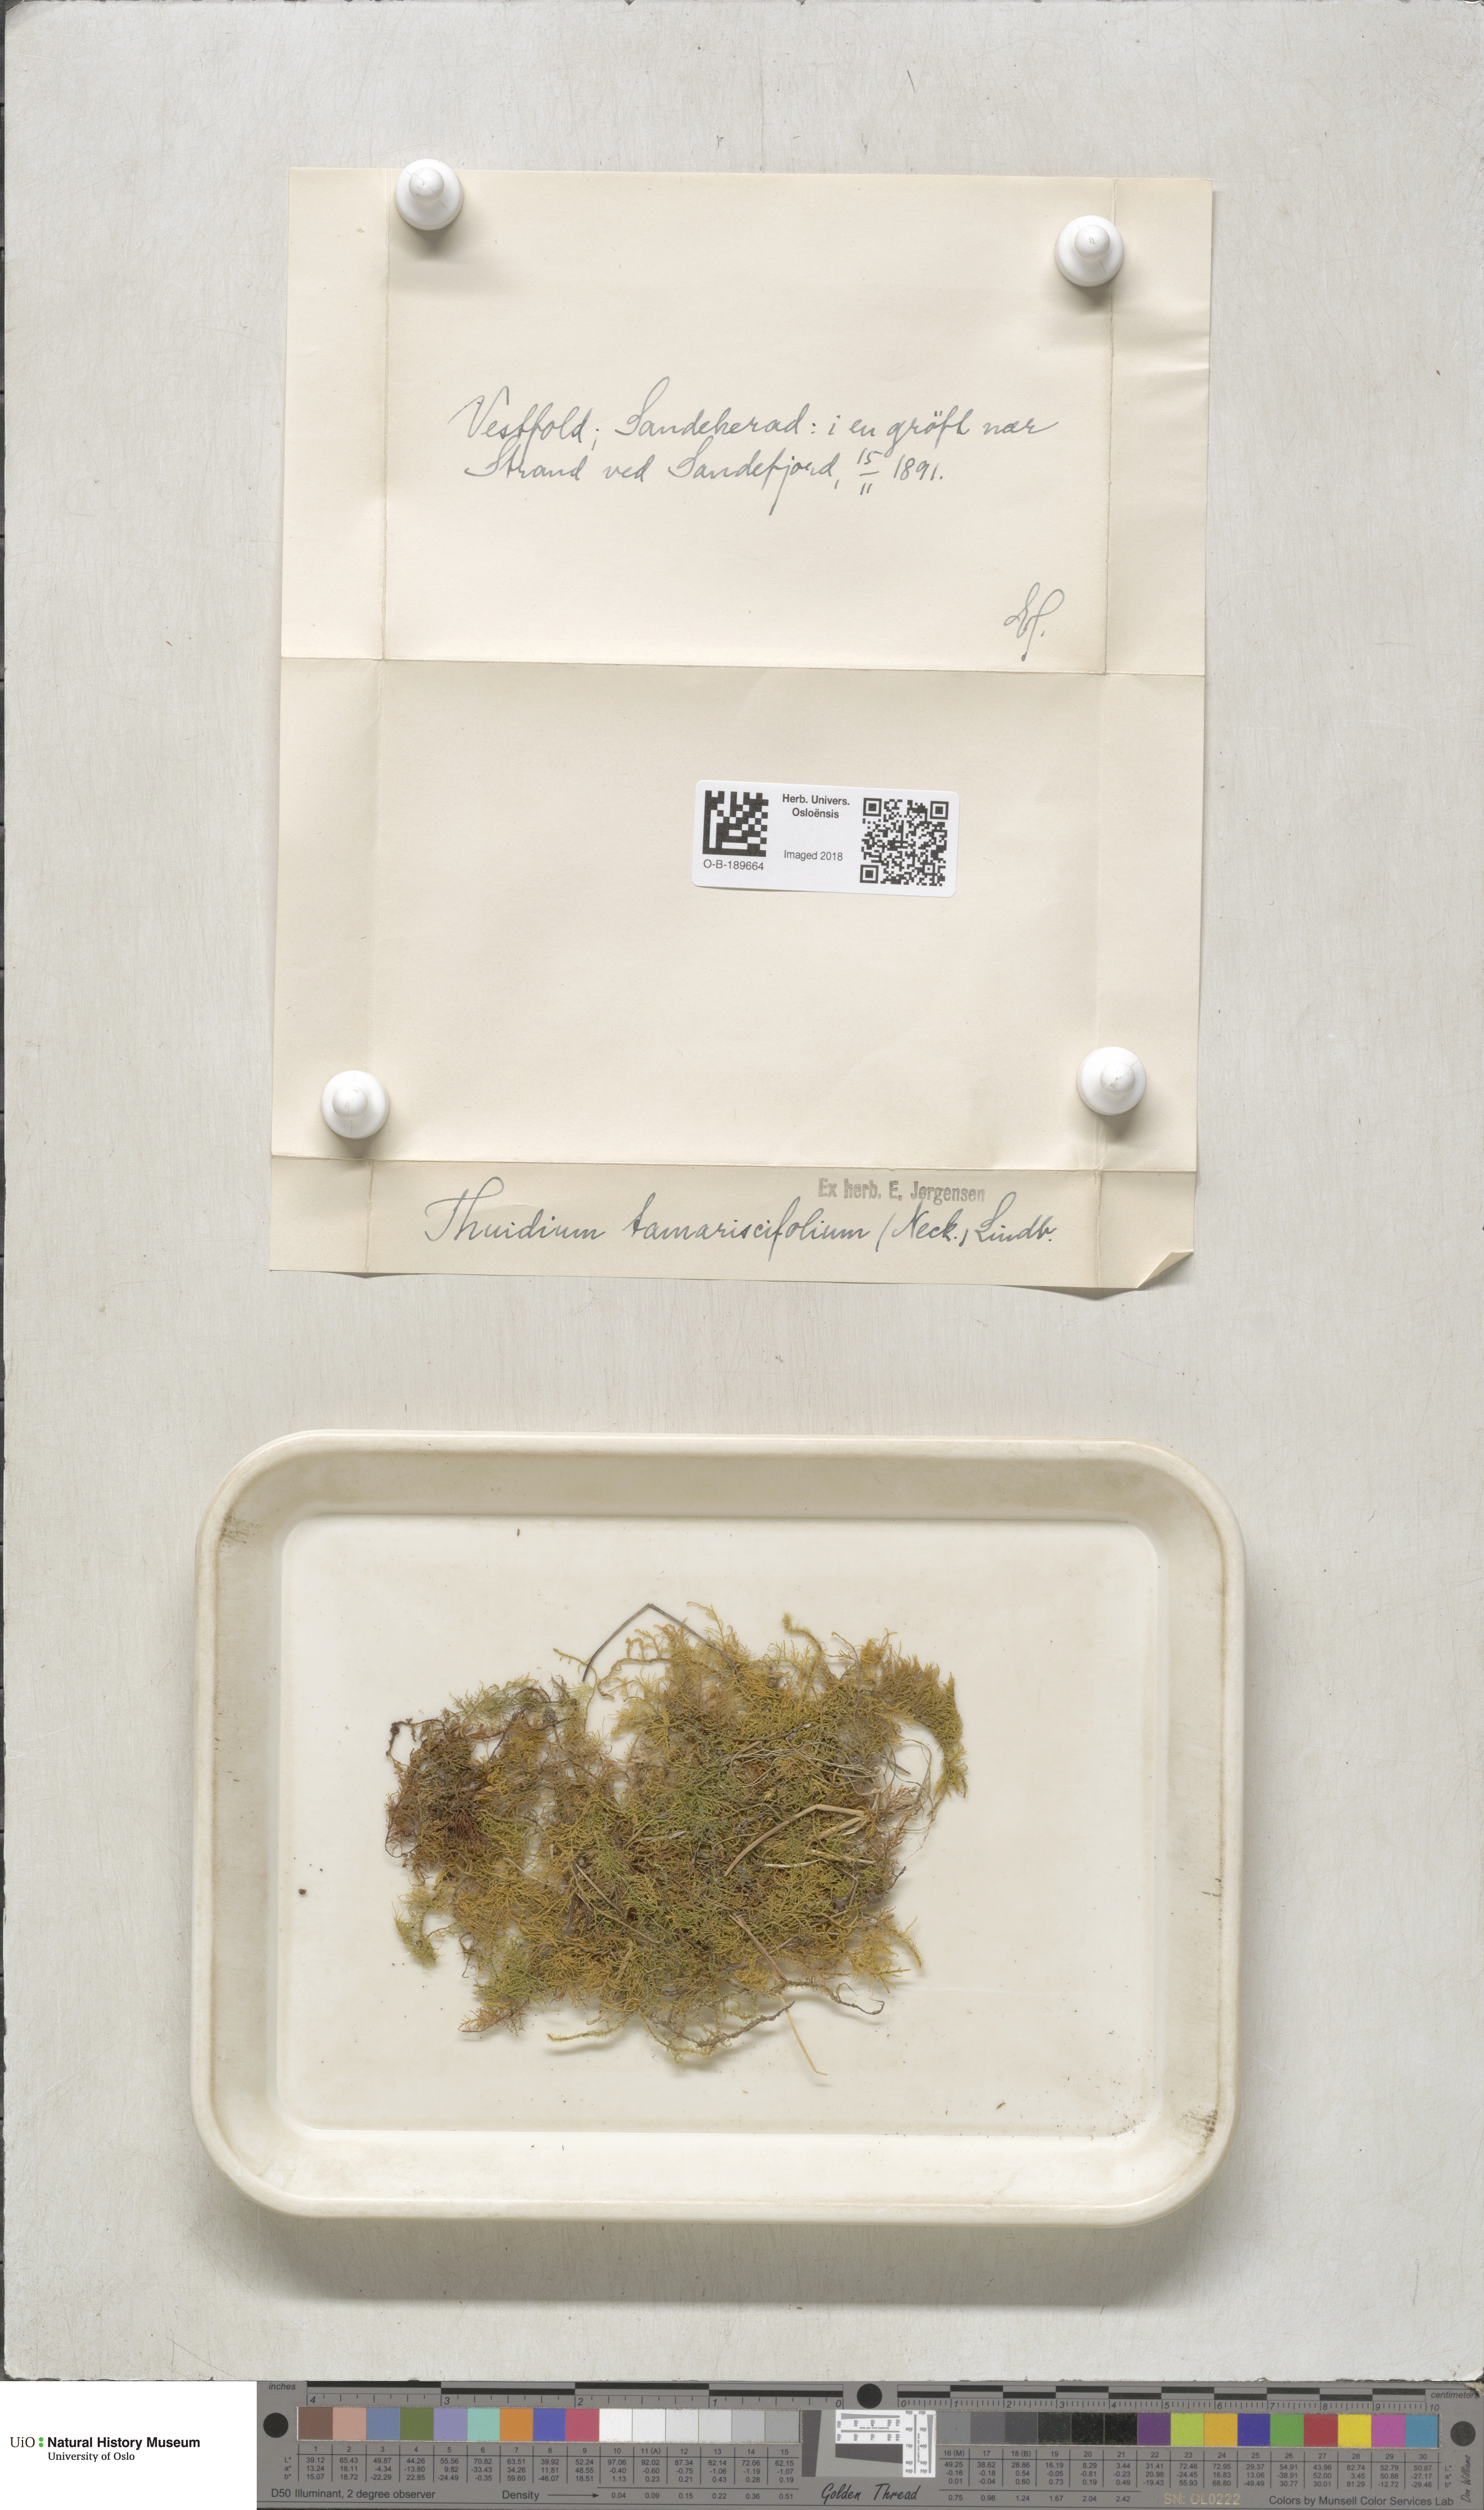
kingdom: Plantae
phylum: Bryophyta
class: Bryopsida
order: Hypnales
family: Thuidiaceae
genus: Thuidium
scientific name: Thuidium tamariscinum
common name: Common tamarisk-moss
